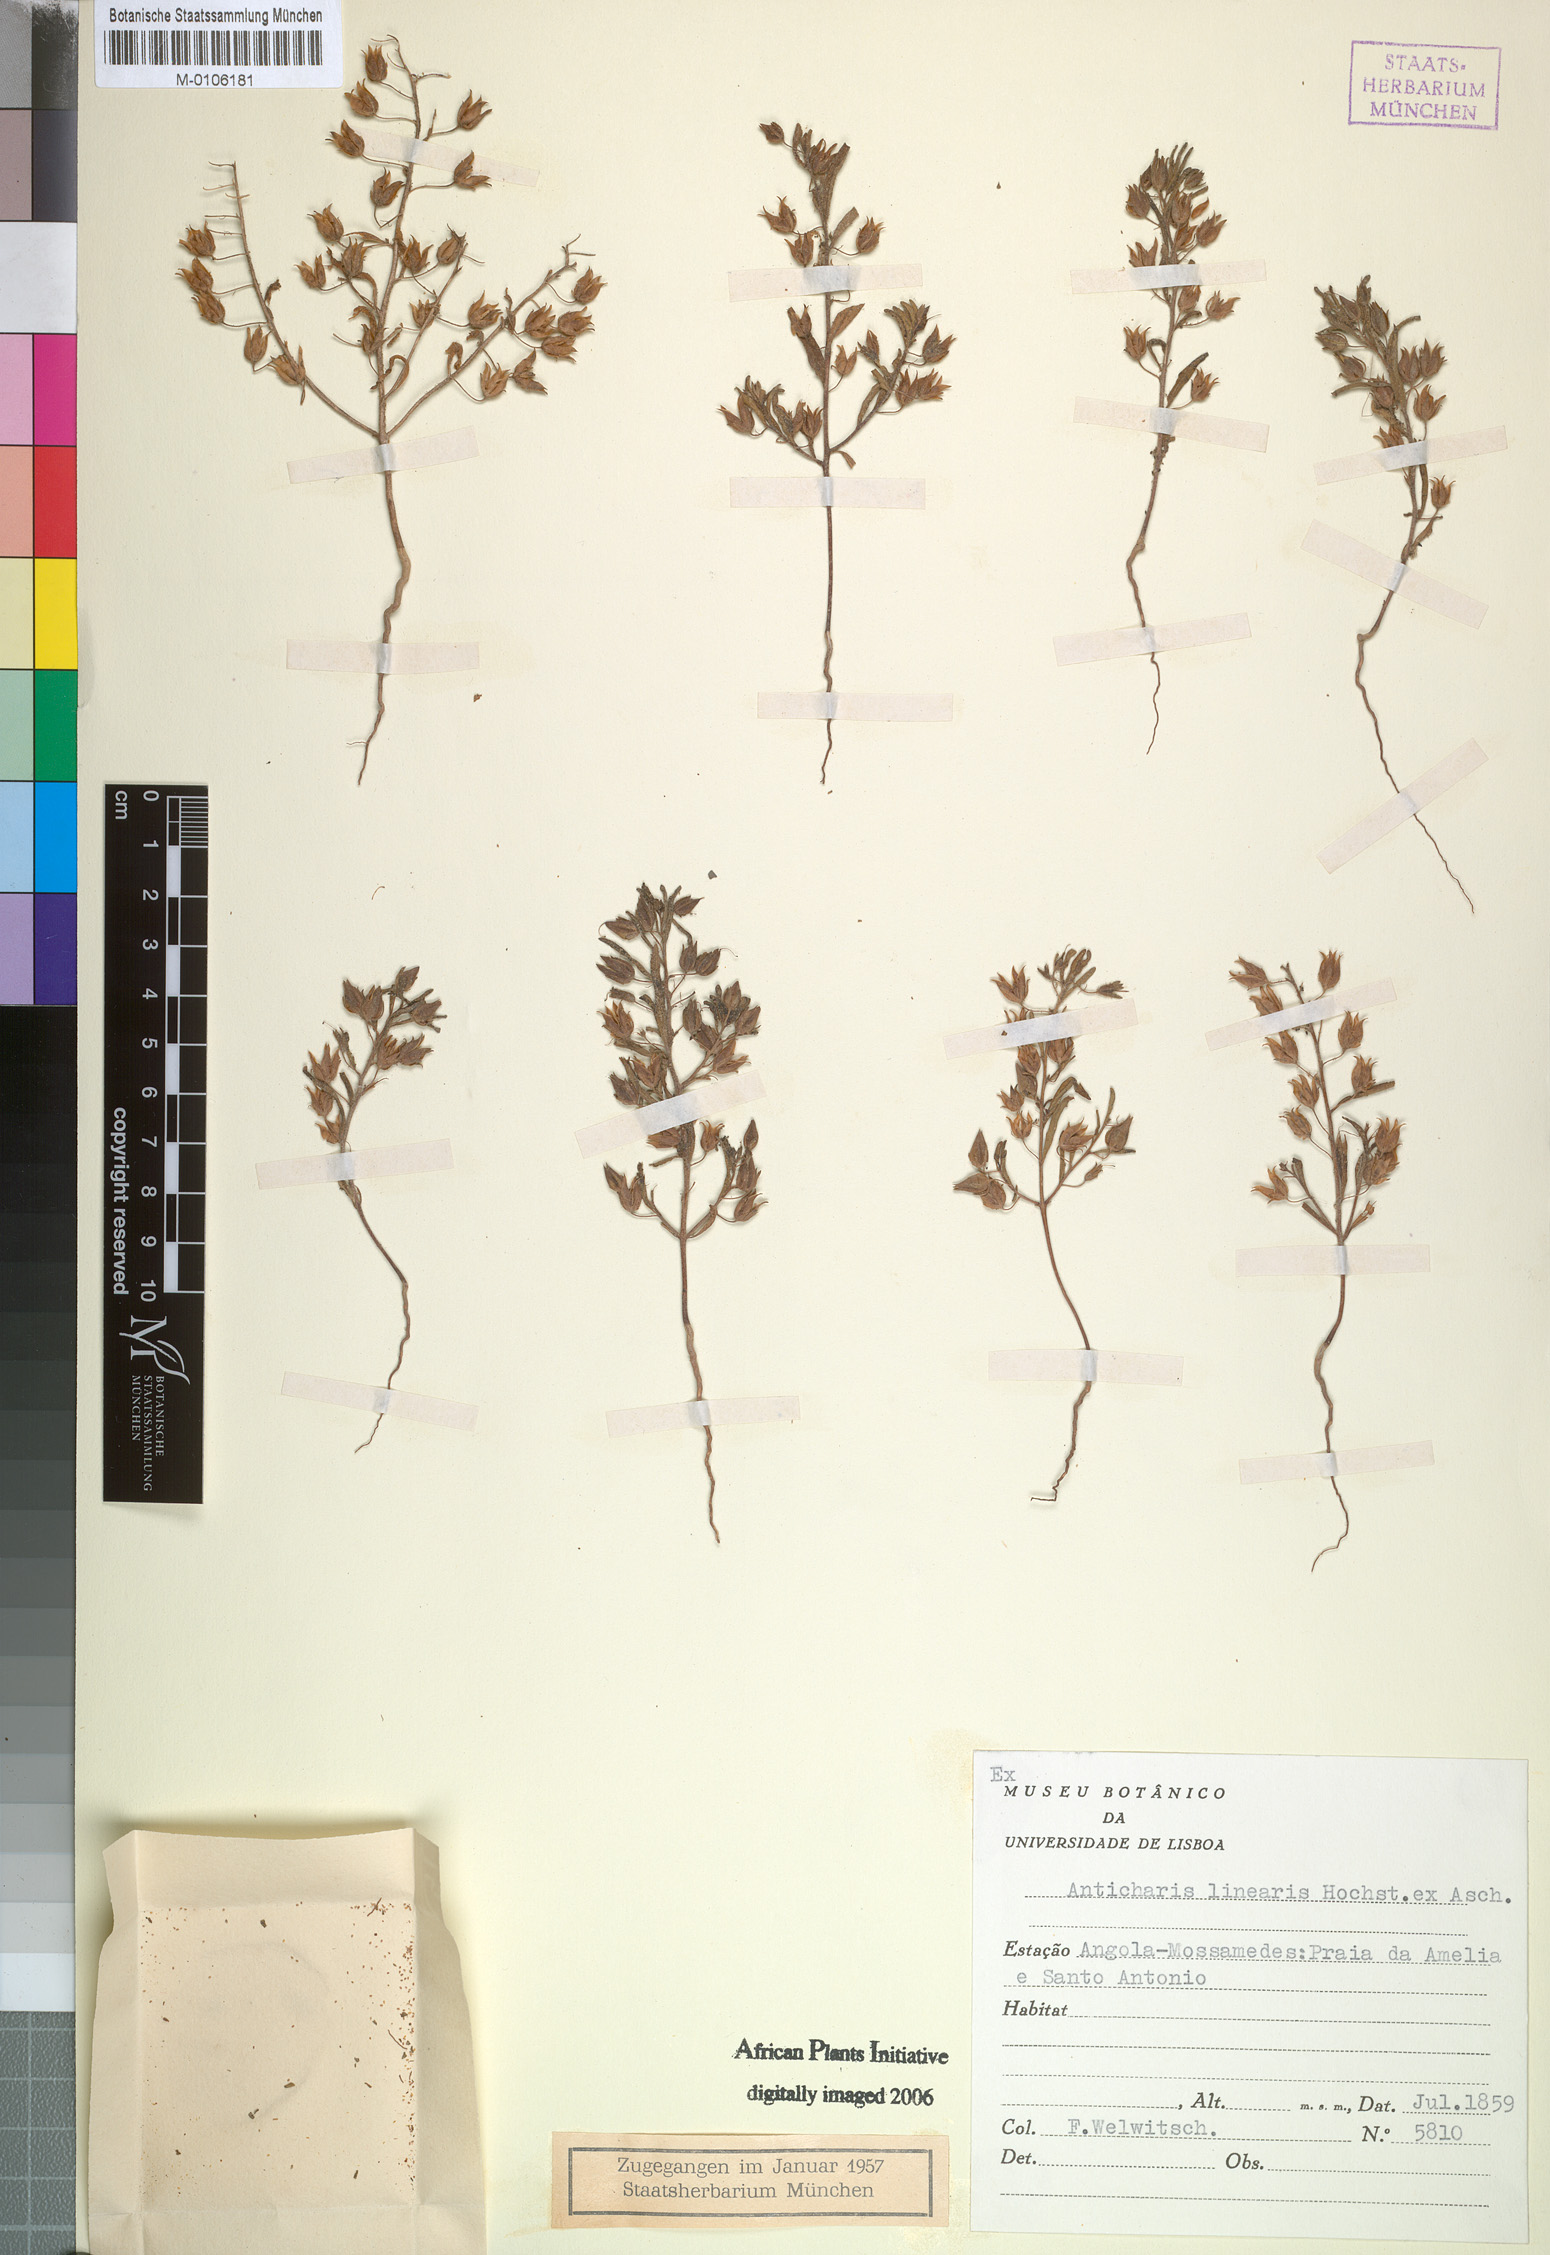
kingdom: Plantae
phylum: Tracheophyta
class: Magnoliopsida
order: Lamiales
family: Scrophulariaceae
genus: Anticharis
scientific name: Anticharis senegalensis
